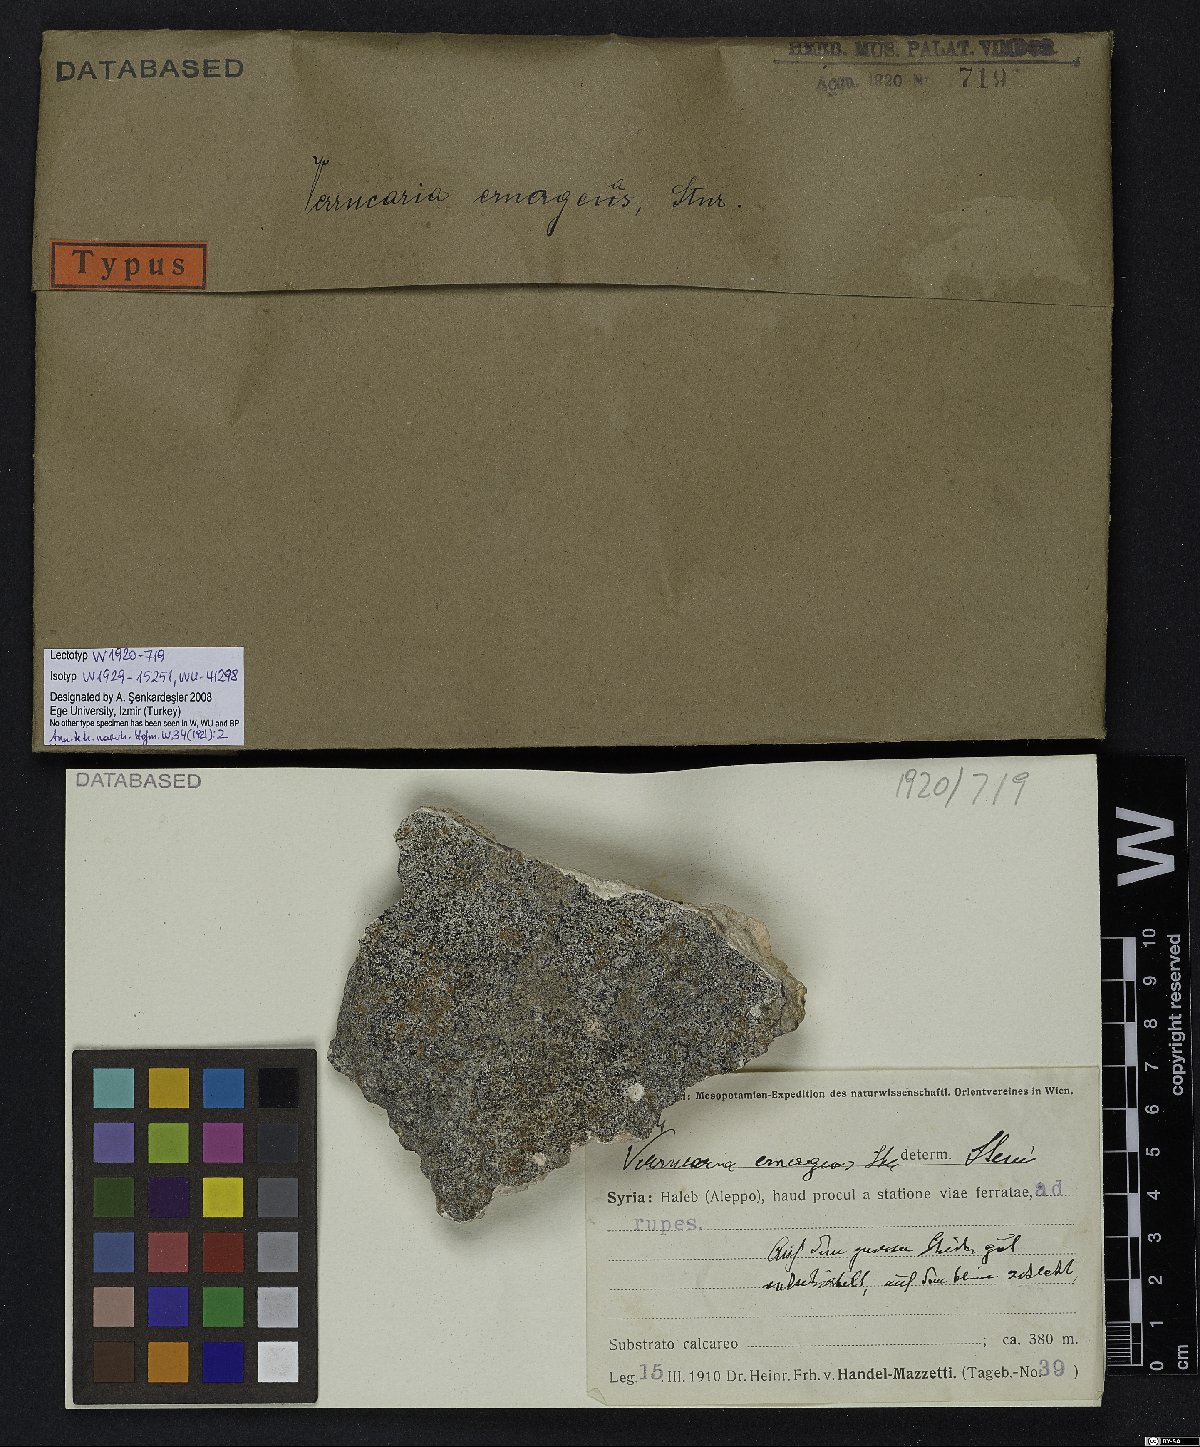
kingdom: Fungi
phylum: Ascomycota
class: Eurotiomycetes
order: Verrucariales
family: Verrucariaceae
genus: Verrucaria
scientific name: Verrucaria
